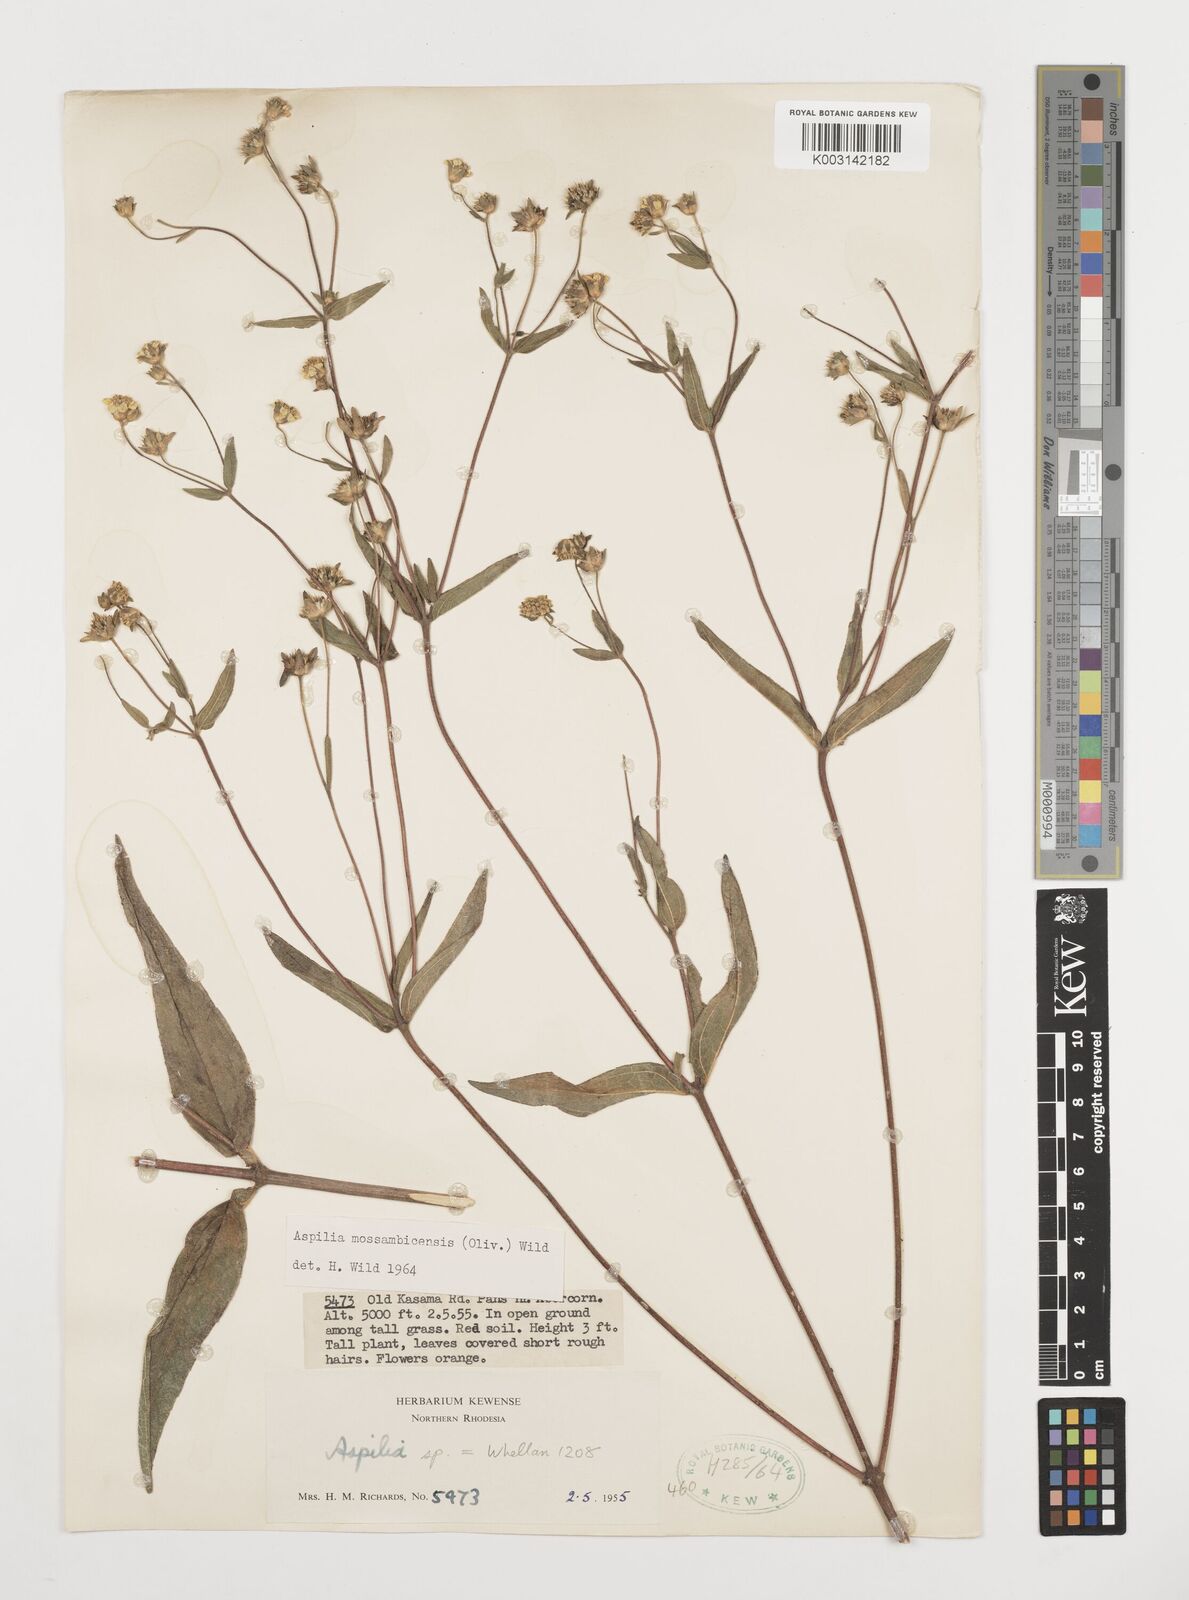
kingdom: Plantae
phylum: Tracheophyta
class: Magnoliopsida
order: Asterales
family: Asteraceae
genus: Aspilia
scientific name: Aspilia mossambicensis
